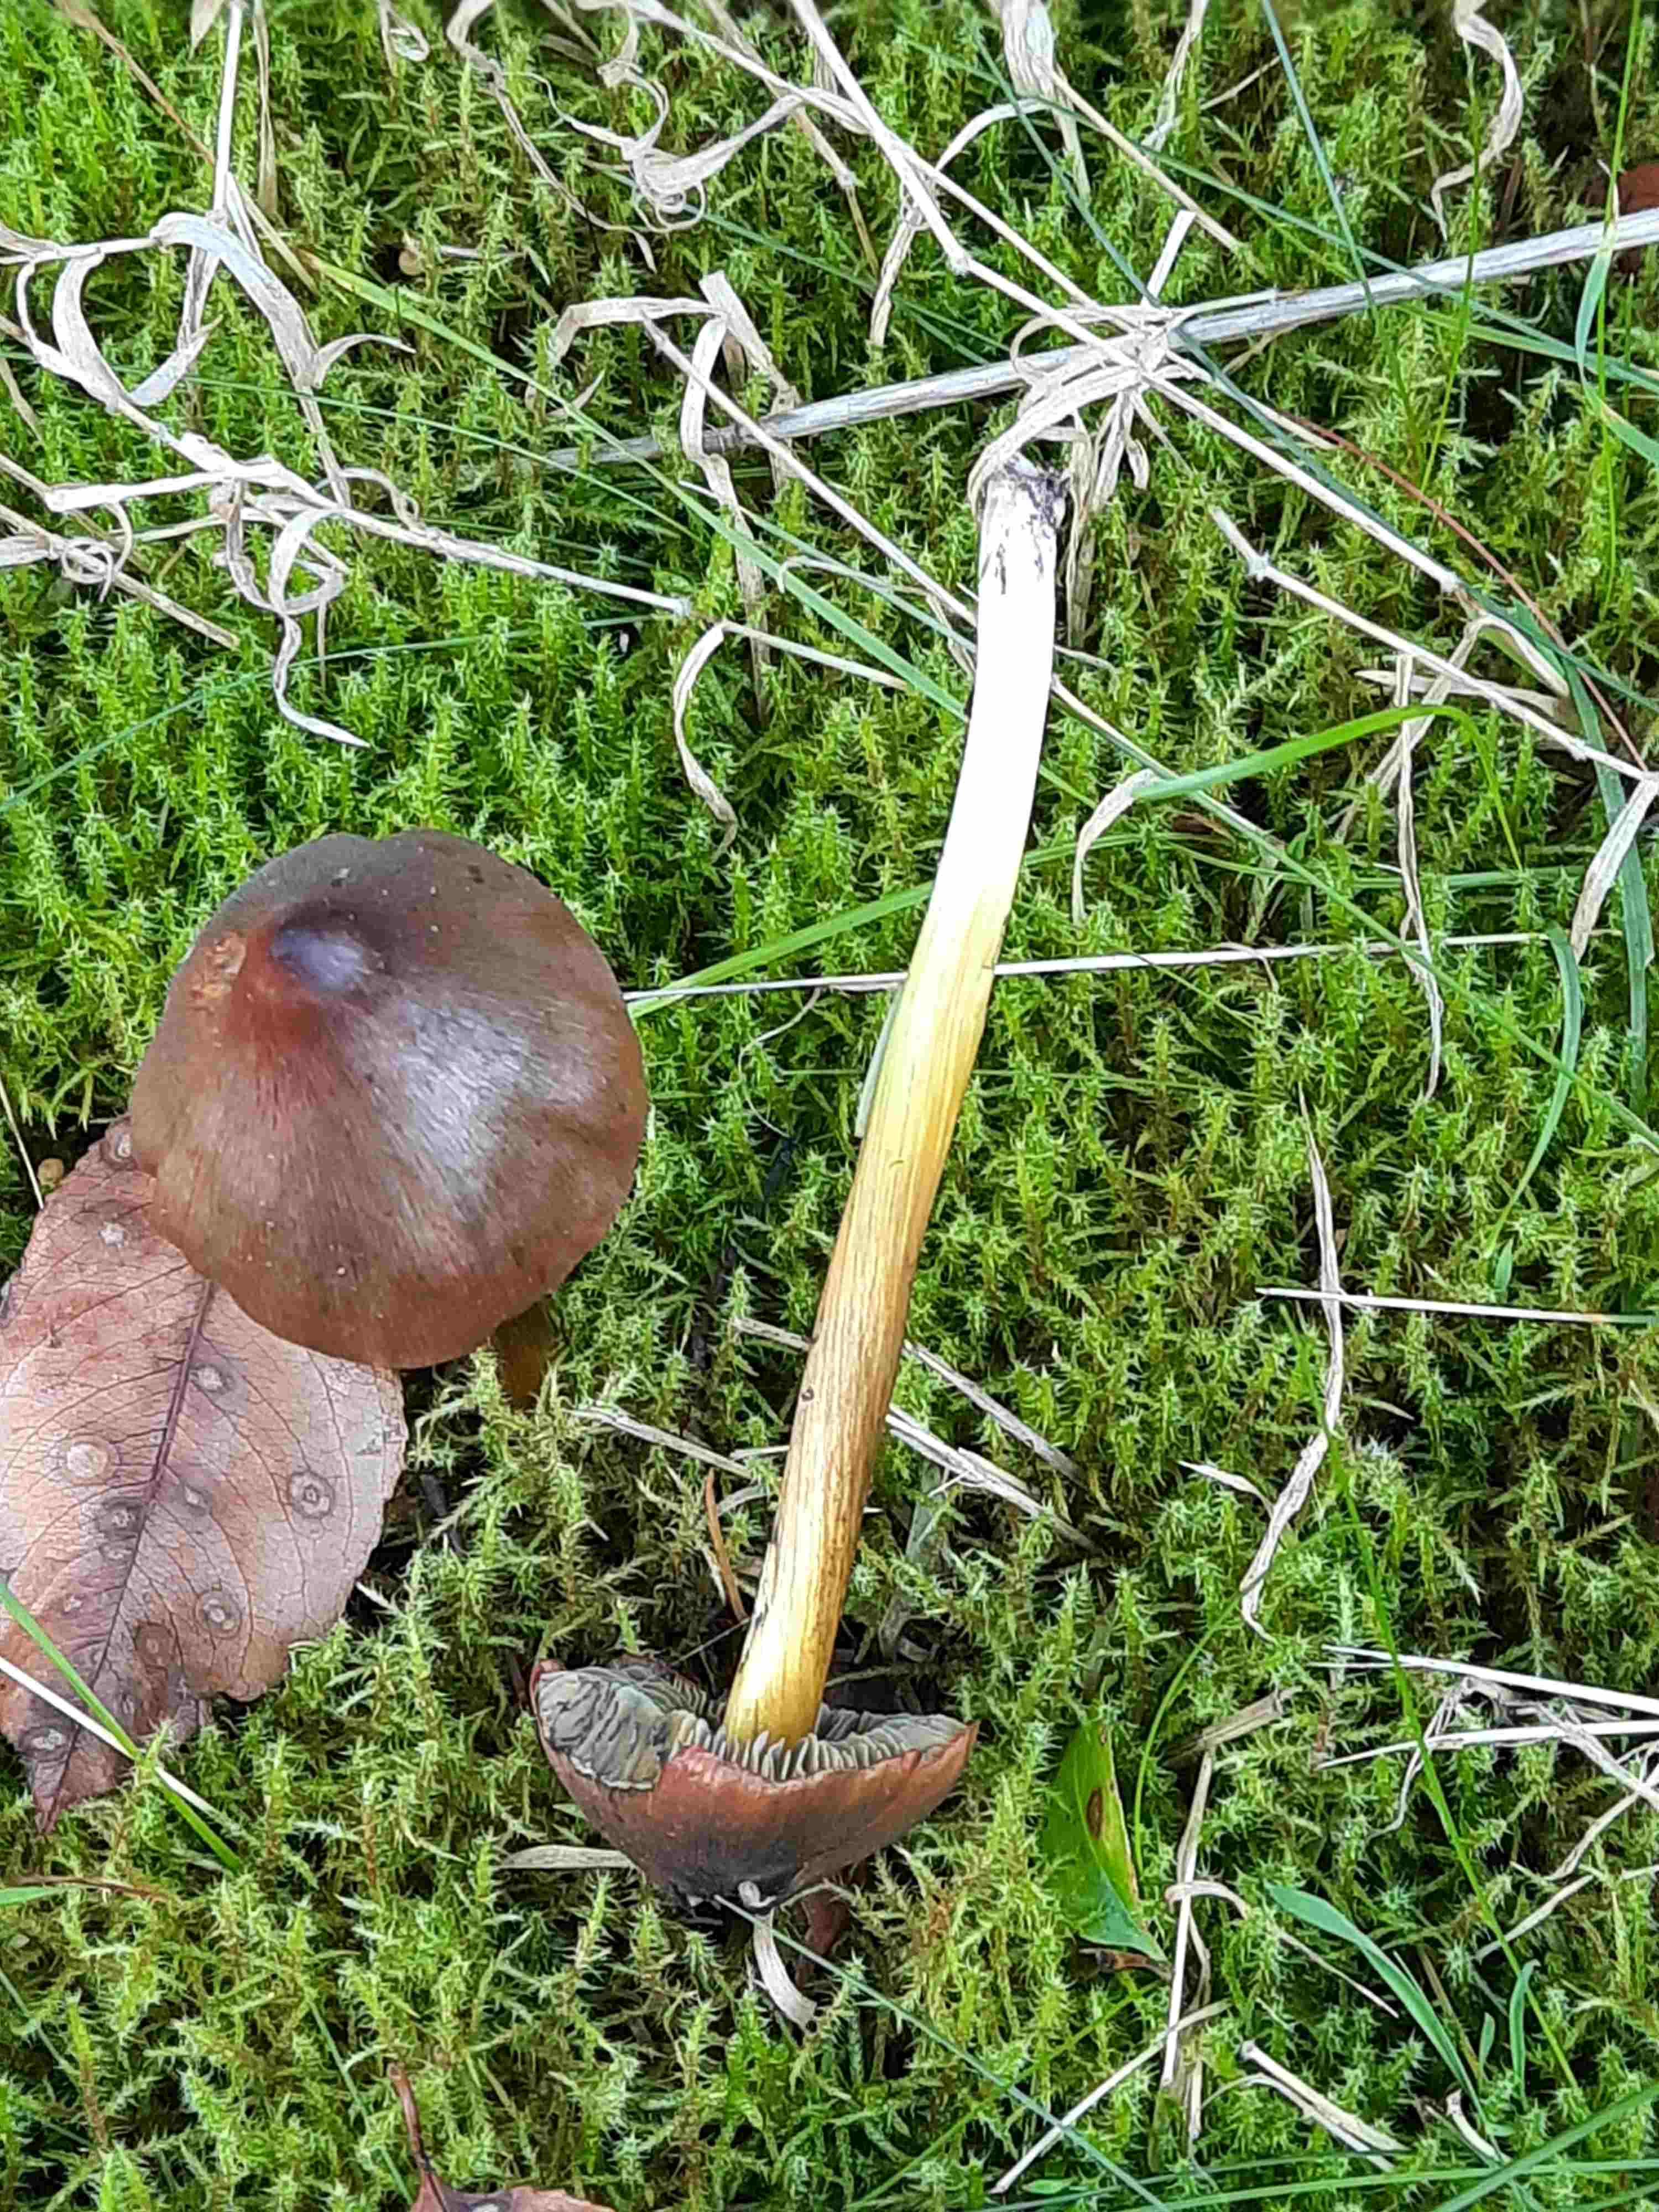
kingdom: Fungi
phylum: Basidiomycota
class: Agaricomycetes
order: Agaricales
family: Hygrophoraceae
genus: Hygrocybe
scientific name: Hygrocybe conica
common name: kegle-vokshat
